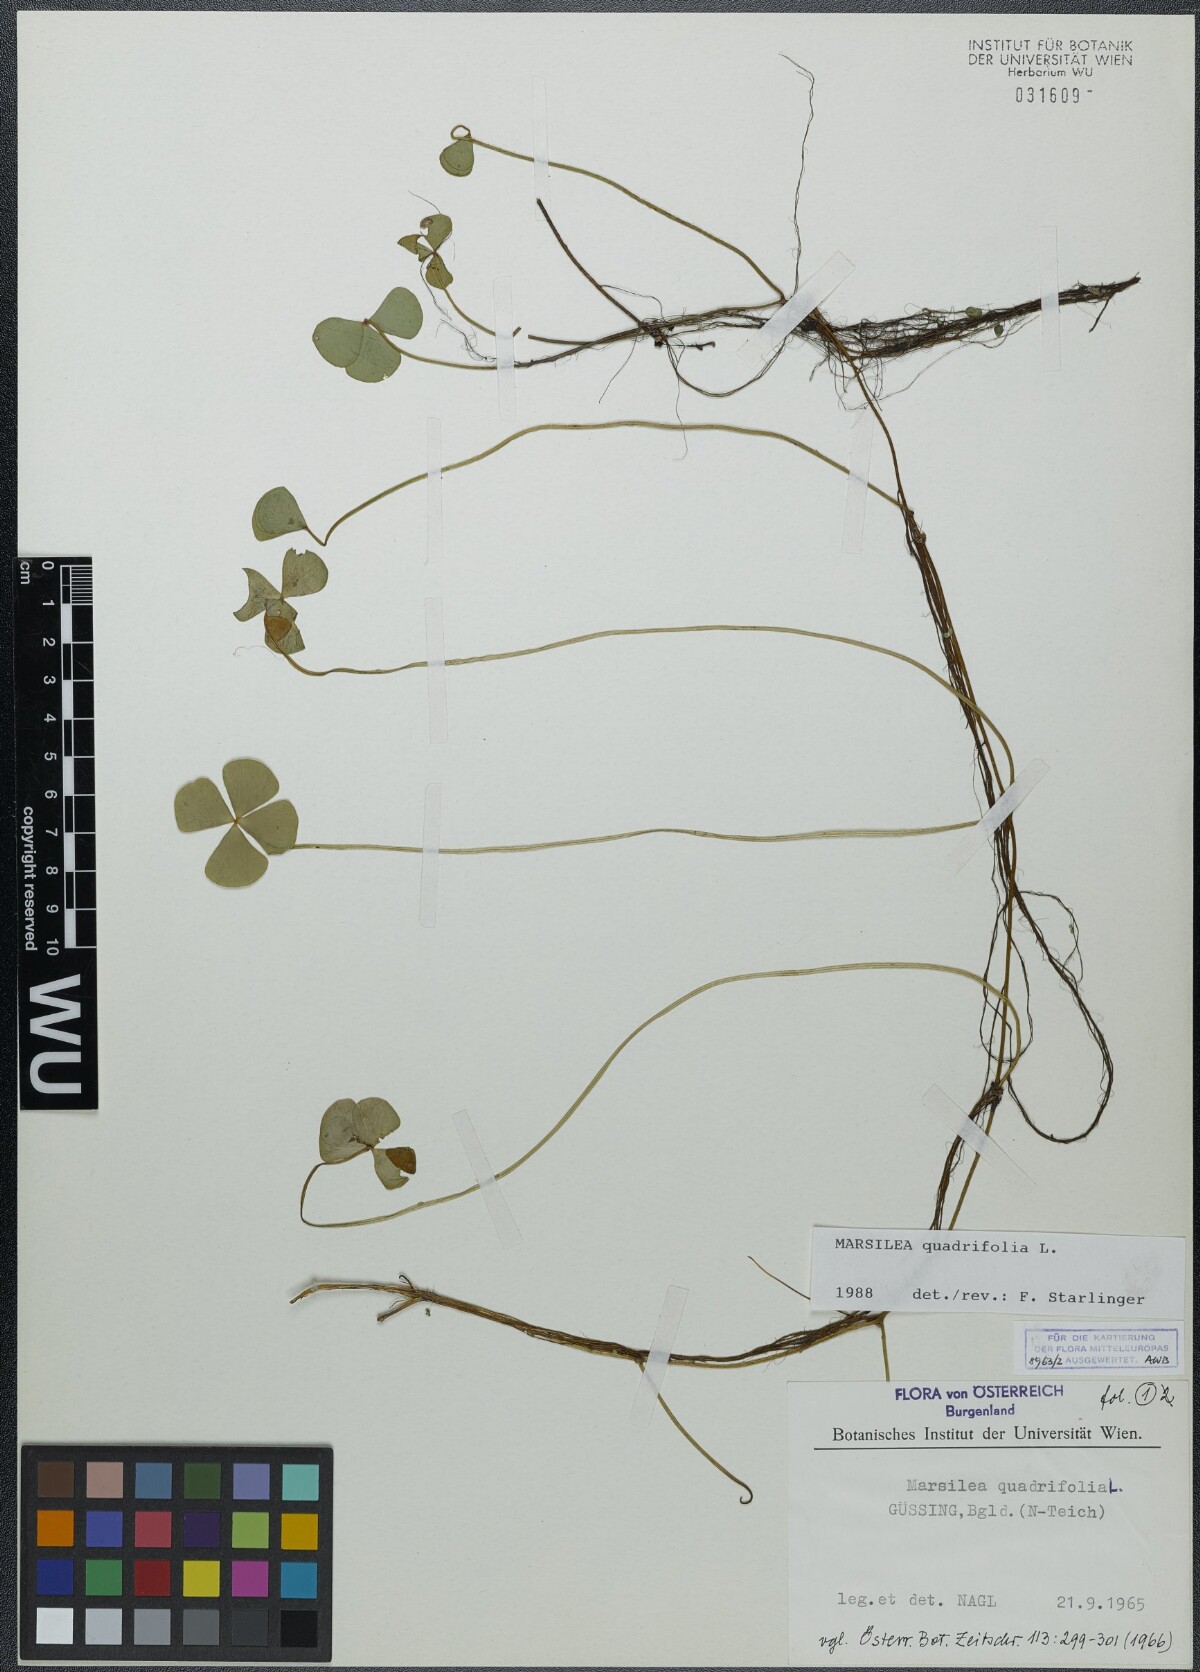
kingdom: Plantae
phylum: Tracheophyta
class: Polypodiopsida
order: Salviniales
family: Marsileaceae
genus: Marsilea
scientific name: Marsilea quadrifolia
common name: Water shamrock
